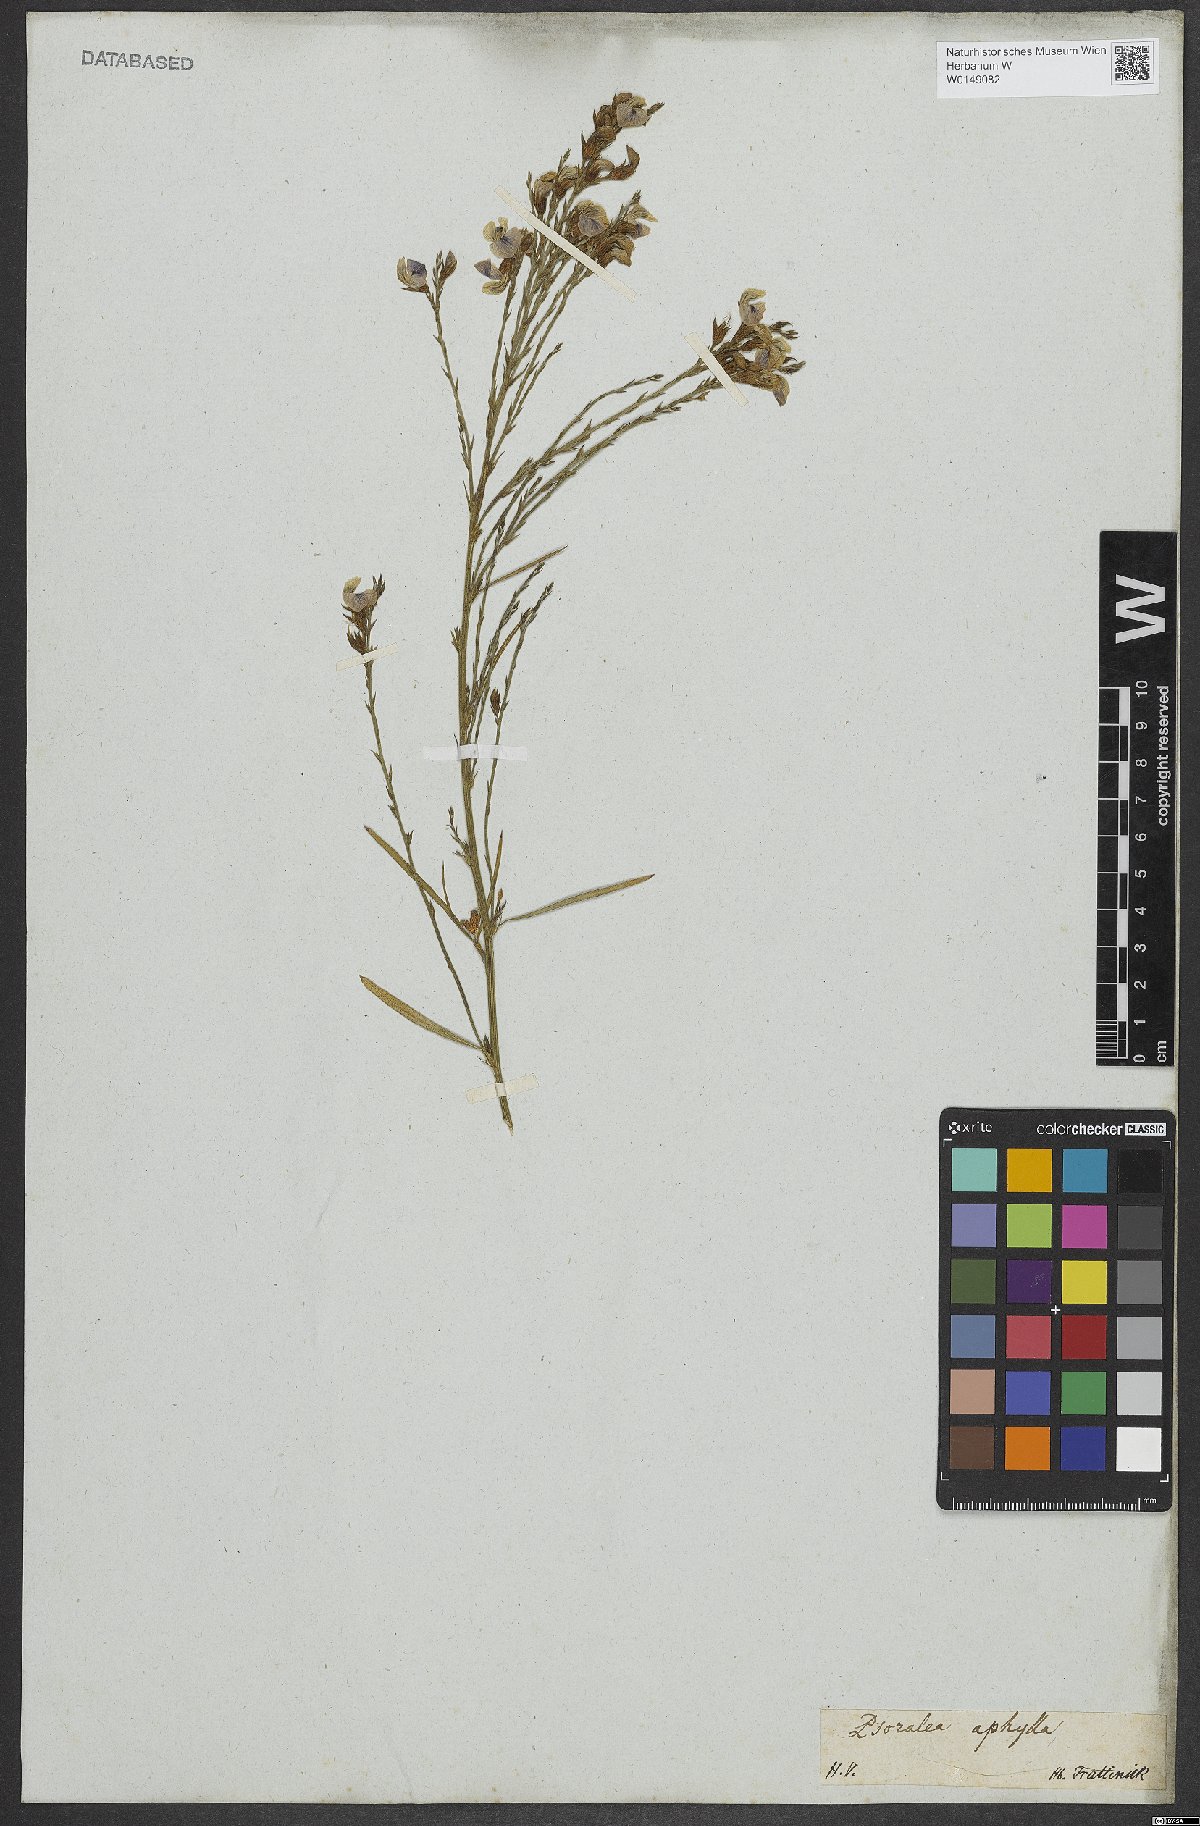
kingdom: Plantae
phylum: Tracheophyta
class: Magnoliopsida
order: Fabales
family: Fabaceae
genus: Psoralea
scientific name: Psoralea aphylla
